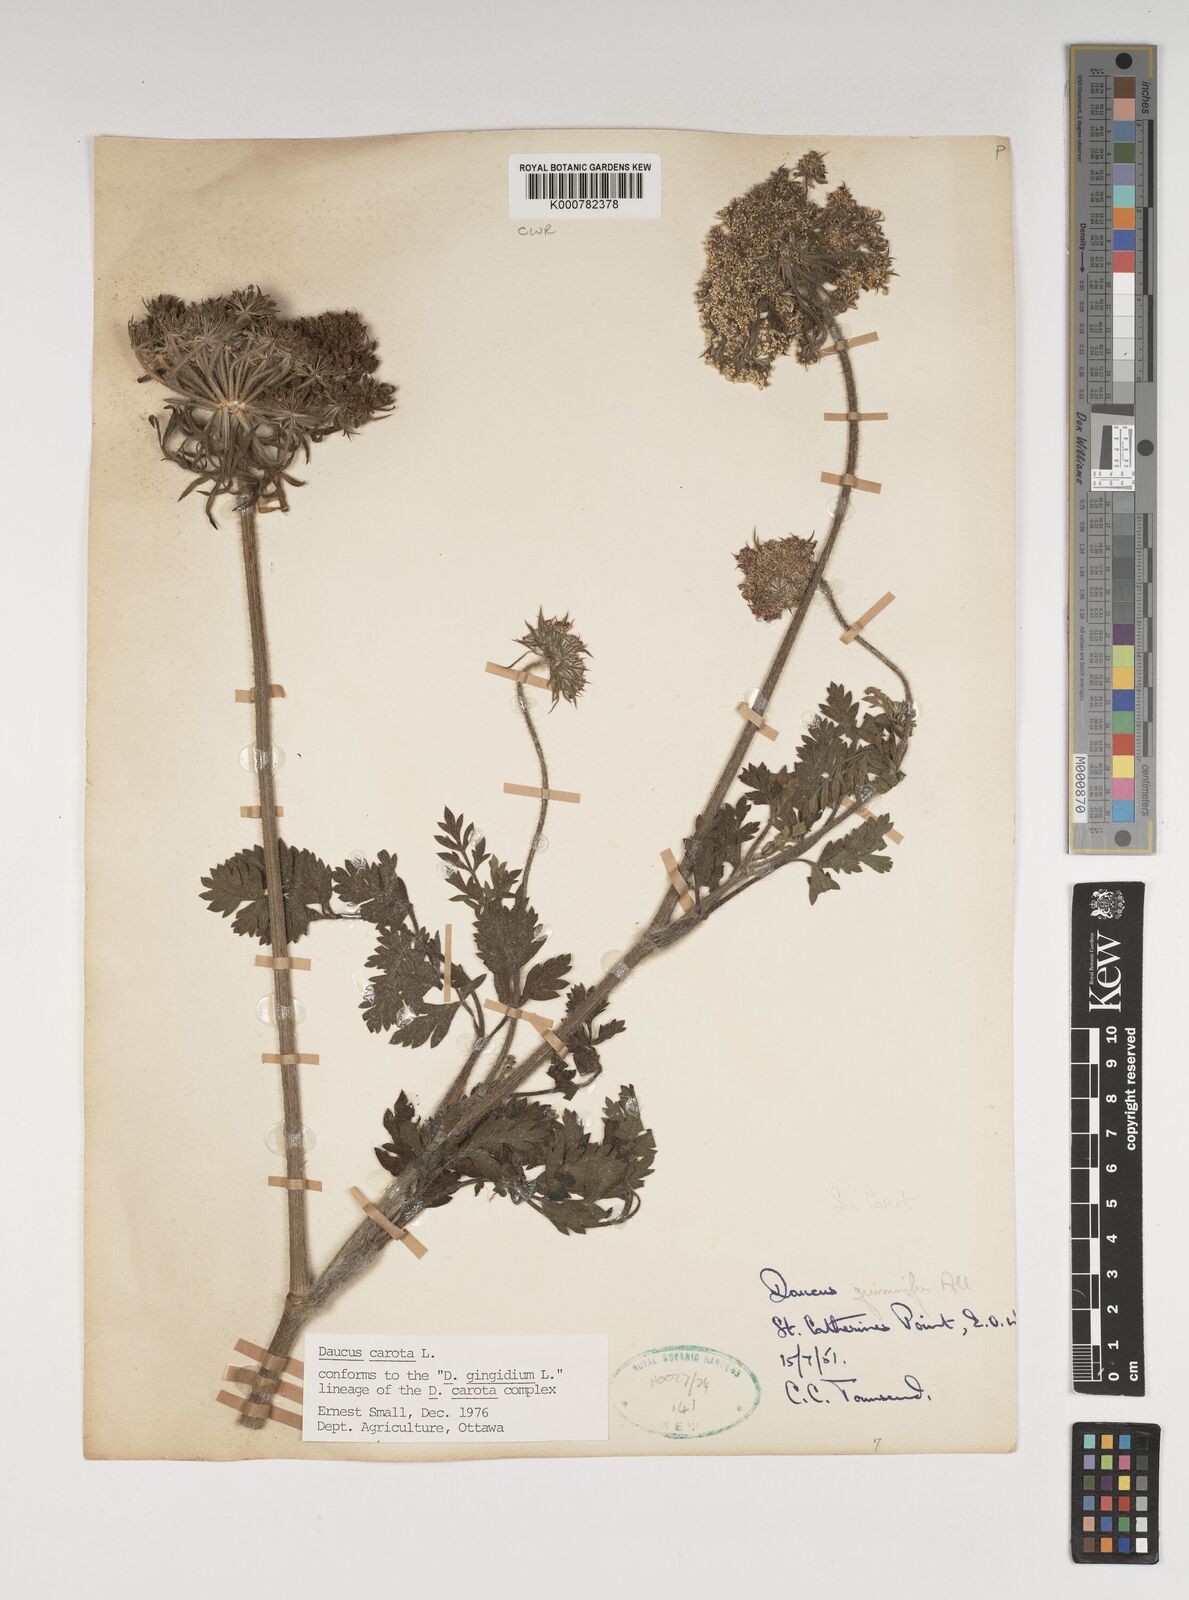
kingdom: Plantae
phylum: Tracheophyta
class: Magnoliopsida
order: Apiales
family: Apiaceae
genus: Daucus
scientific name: Daucus carota
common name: Wild carrot
